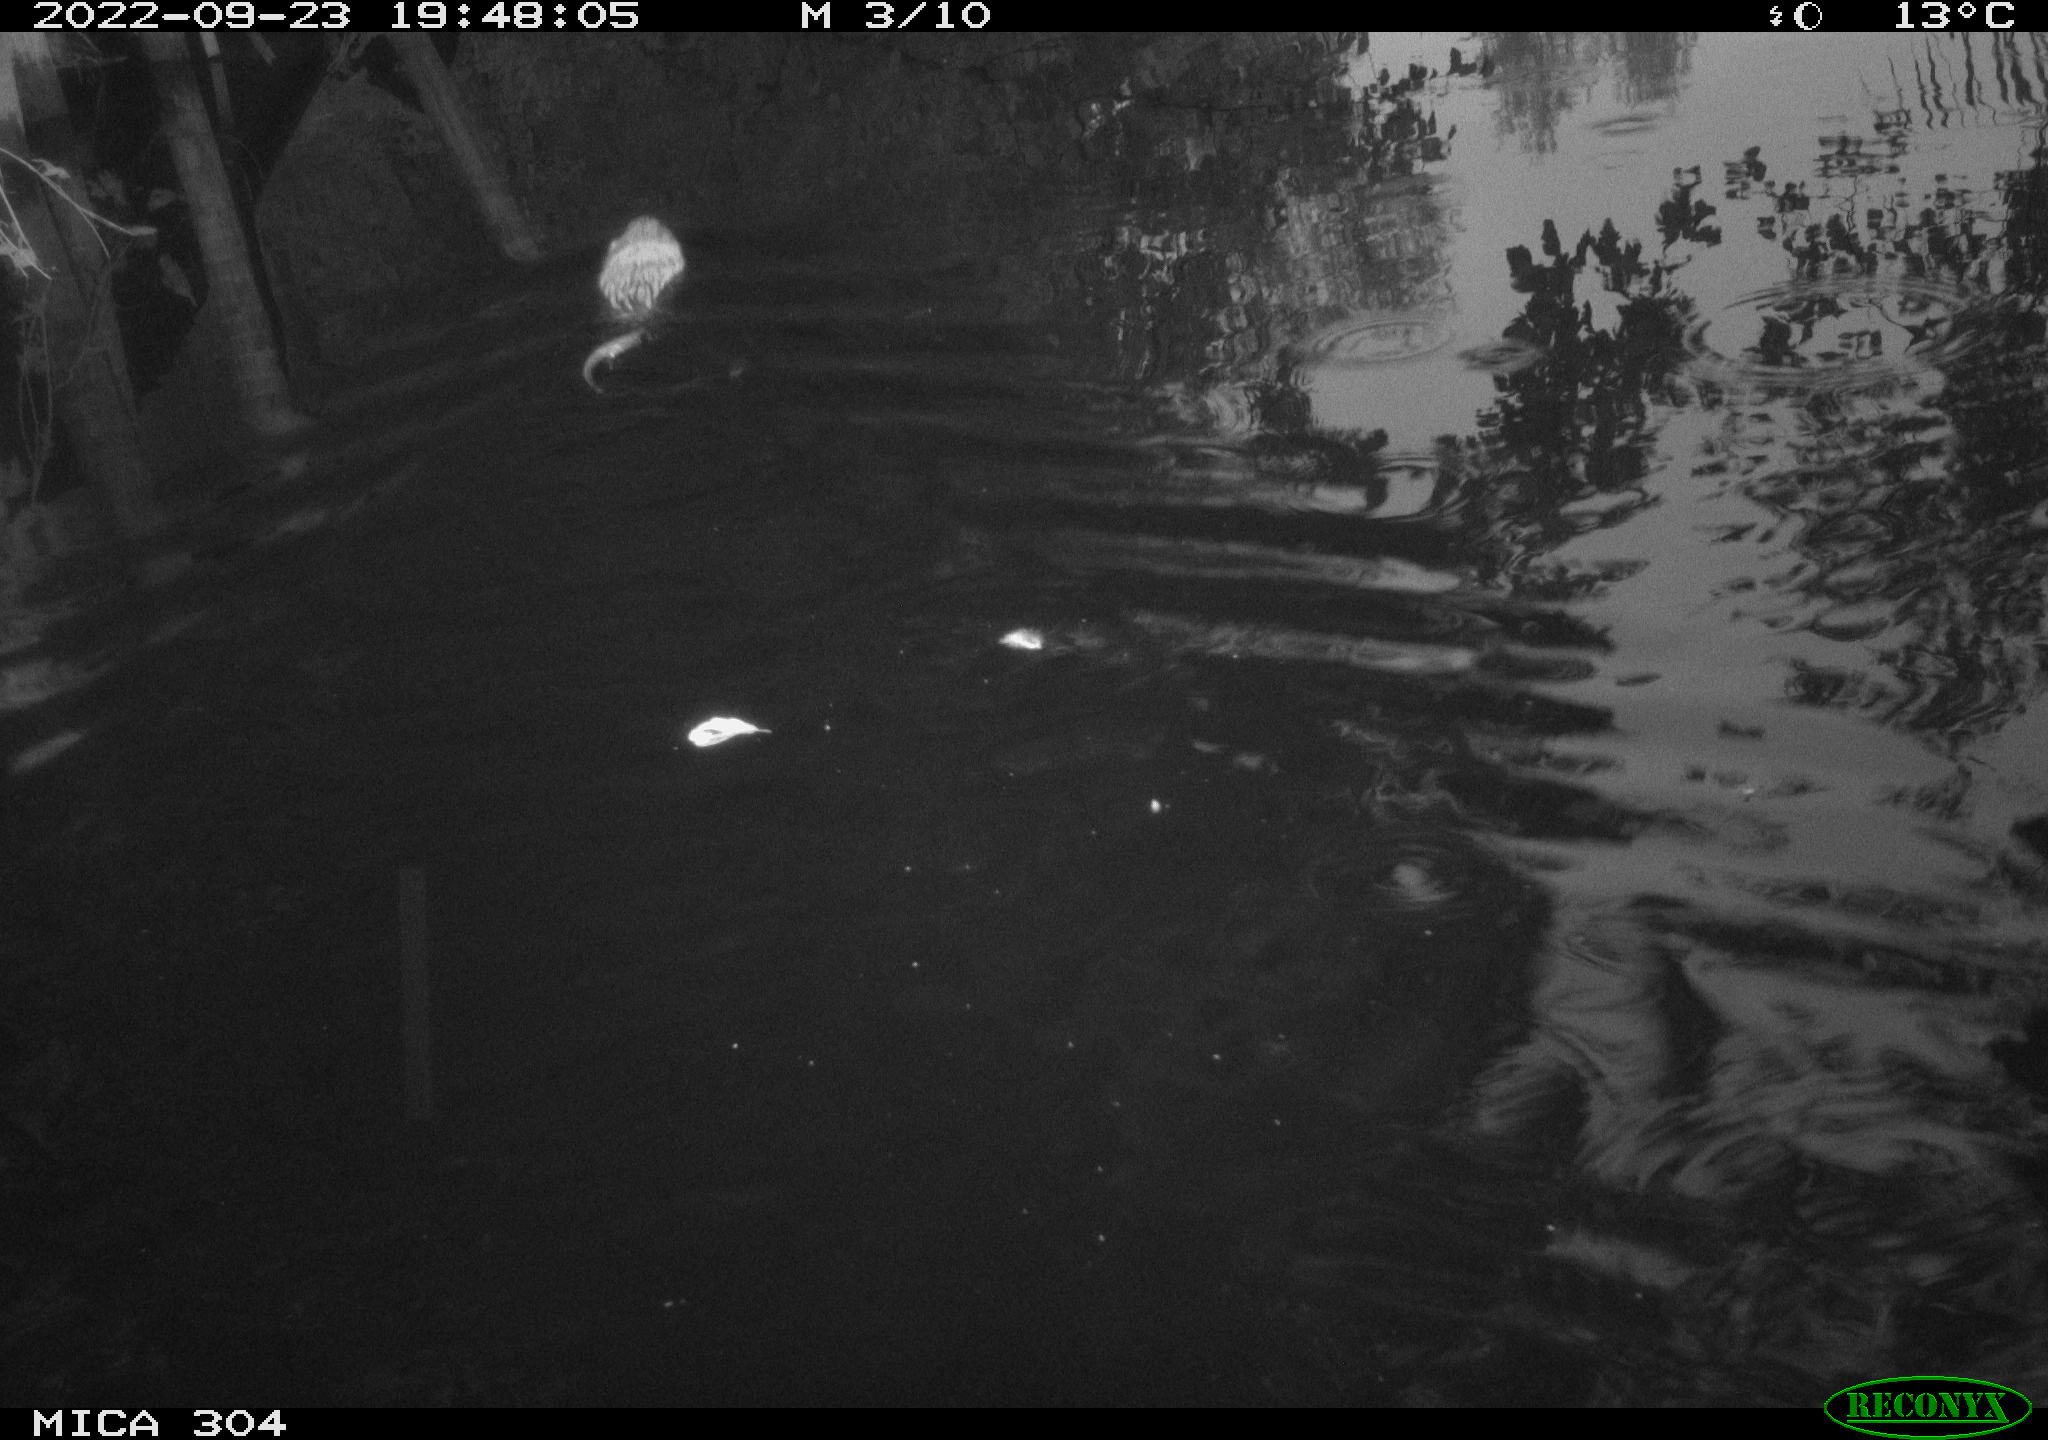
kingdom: Animalia
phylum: Chordata
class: Mammalia
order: Rodentia
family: Cricetidae
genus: Ondatra
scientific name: Ondatra zibethicus
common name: Muskrat
